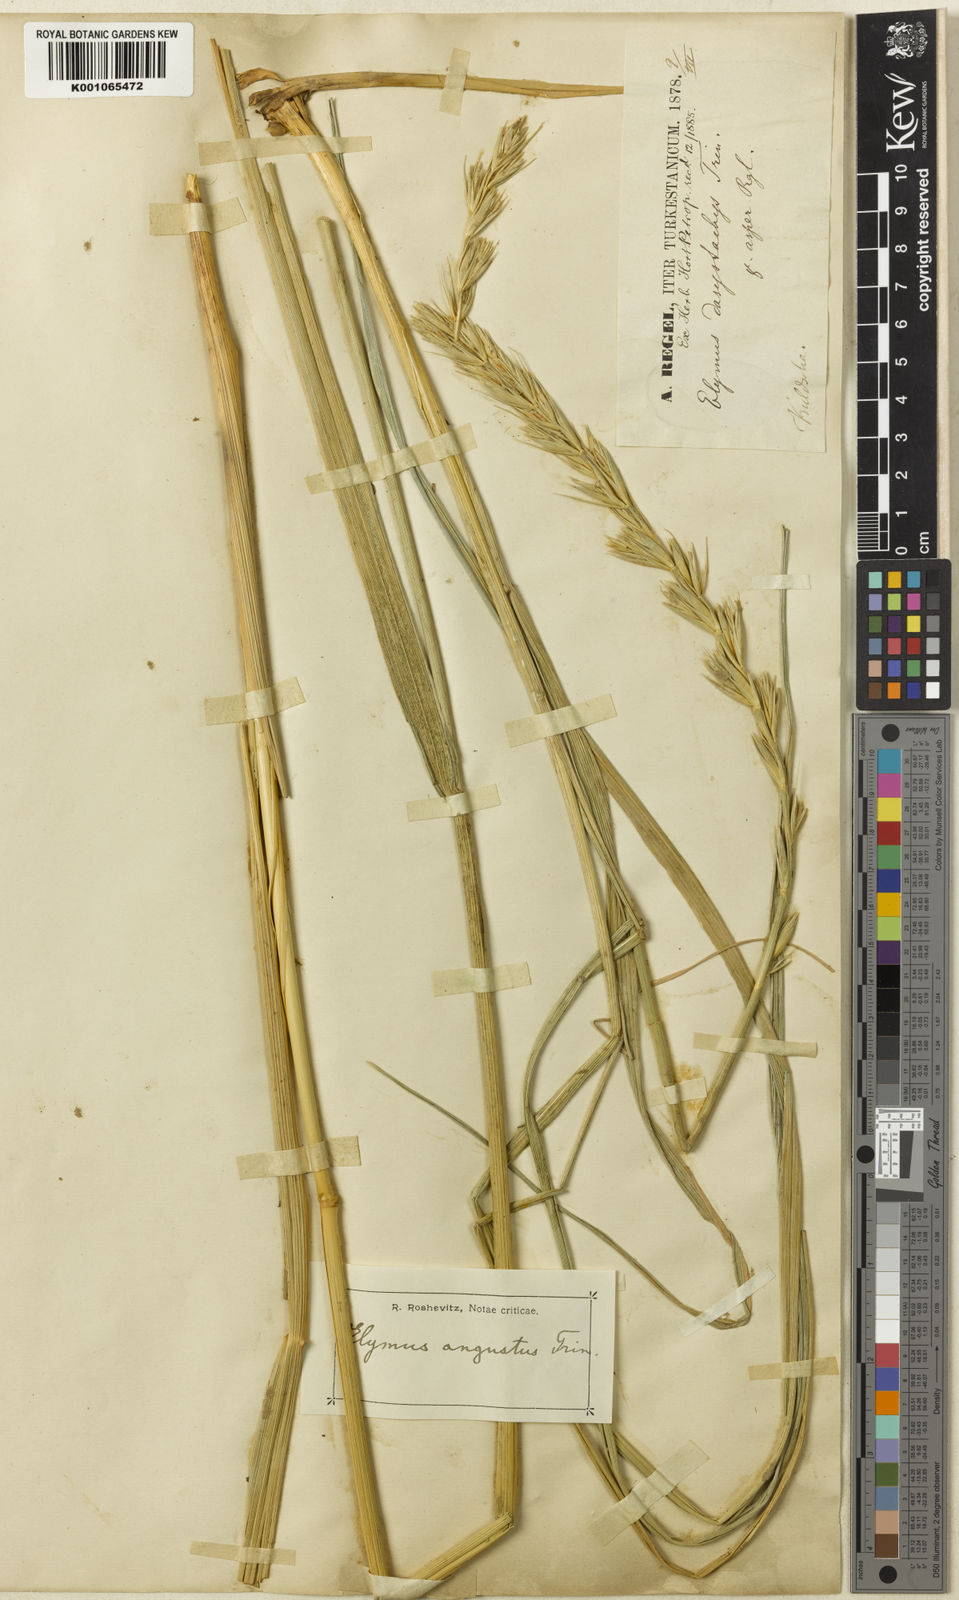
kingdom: Plantae
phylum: Tracheophyta
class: Liliopsida
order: Poales
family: Poaceae
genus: Leymus
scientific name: Leymus secalinus
